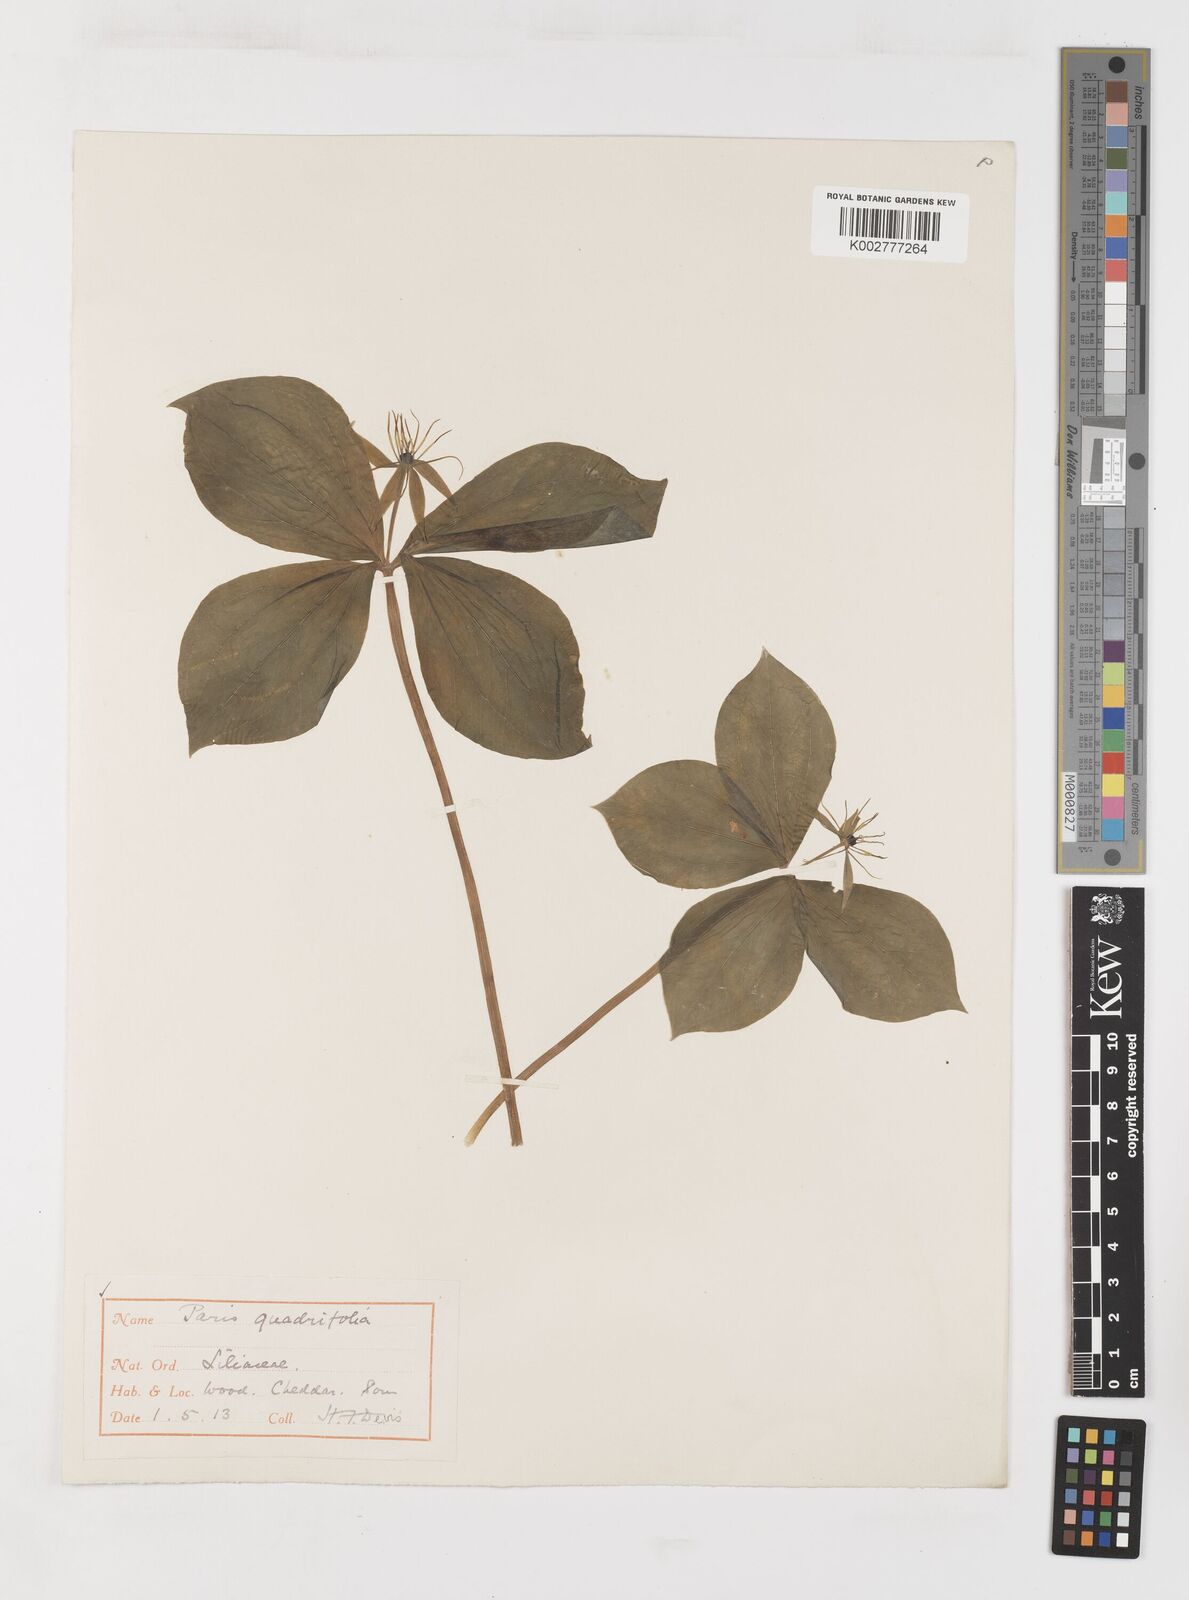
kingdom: Plantae
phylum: Tracheophyta
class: Liliopsida
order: Liliales
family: Melanthiaceae
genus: Paris
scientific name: Paris quadrifolia
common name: Herb-paris
